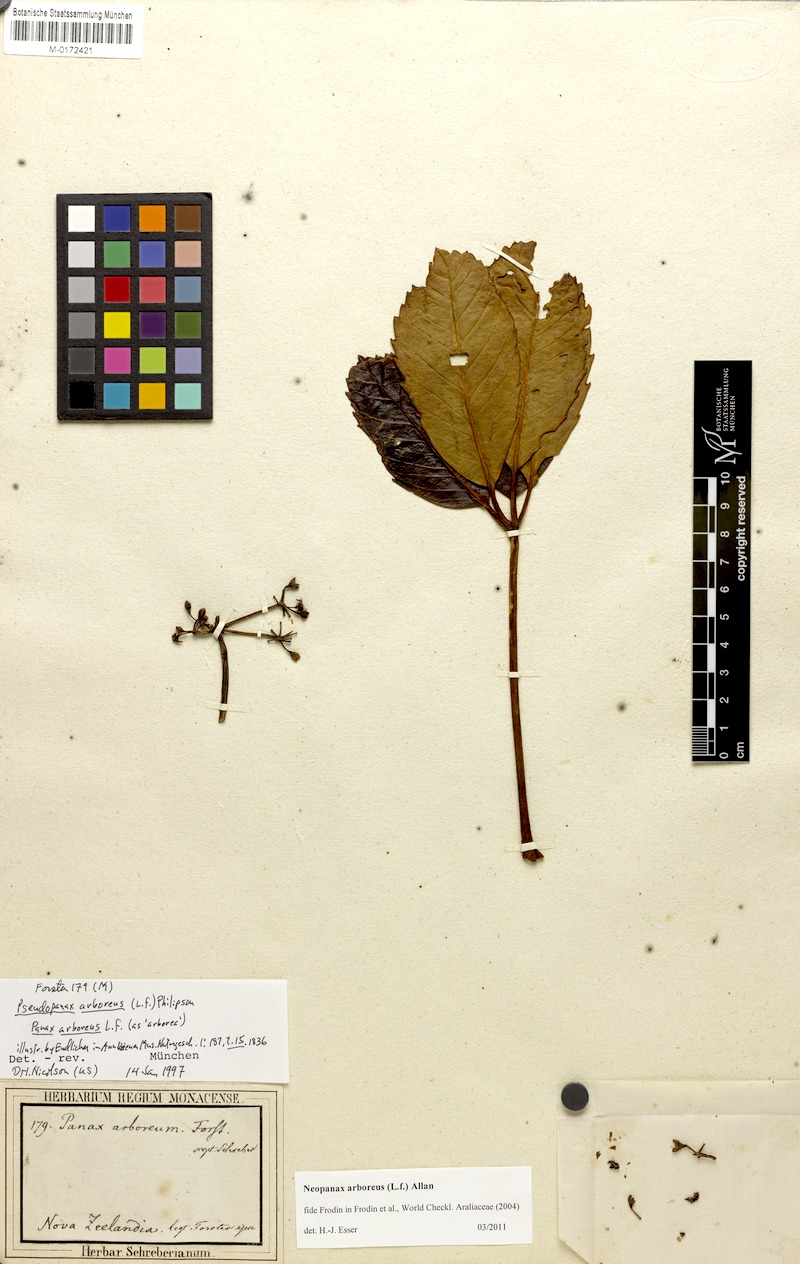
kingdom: Plantae
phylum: Tracheophyta
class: Magnoliopsida
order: Apiales
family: Araliaceae
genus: Neopanax
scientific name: Neopanax arboreus
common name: Five-fingers
